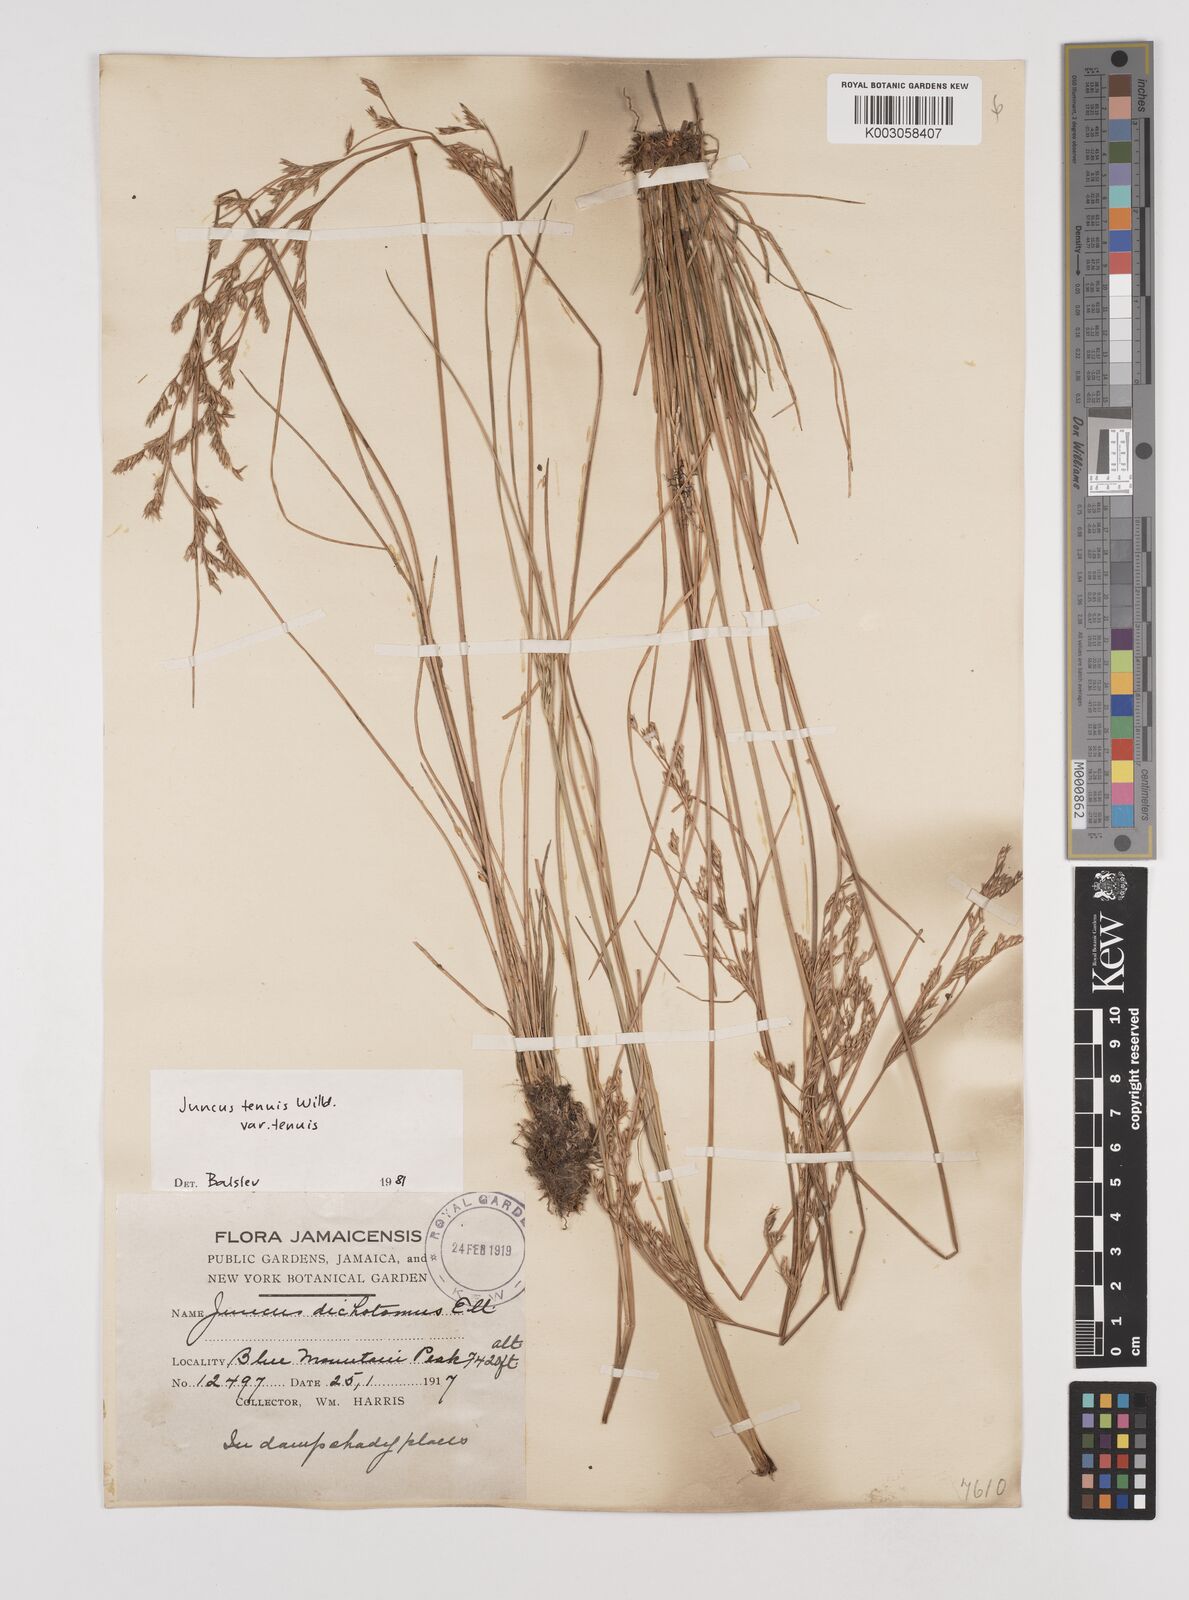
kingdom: Plantae
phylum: Tracheophyta
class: Liliopsida
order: Poales
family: Juncaceae
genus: Juncus
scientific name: Juncus tenuis
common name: Slender rush
